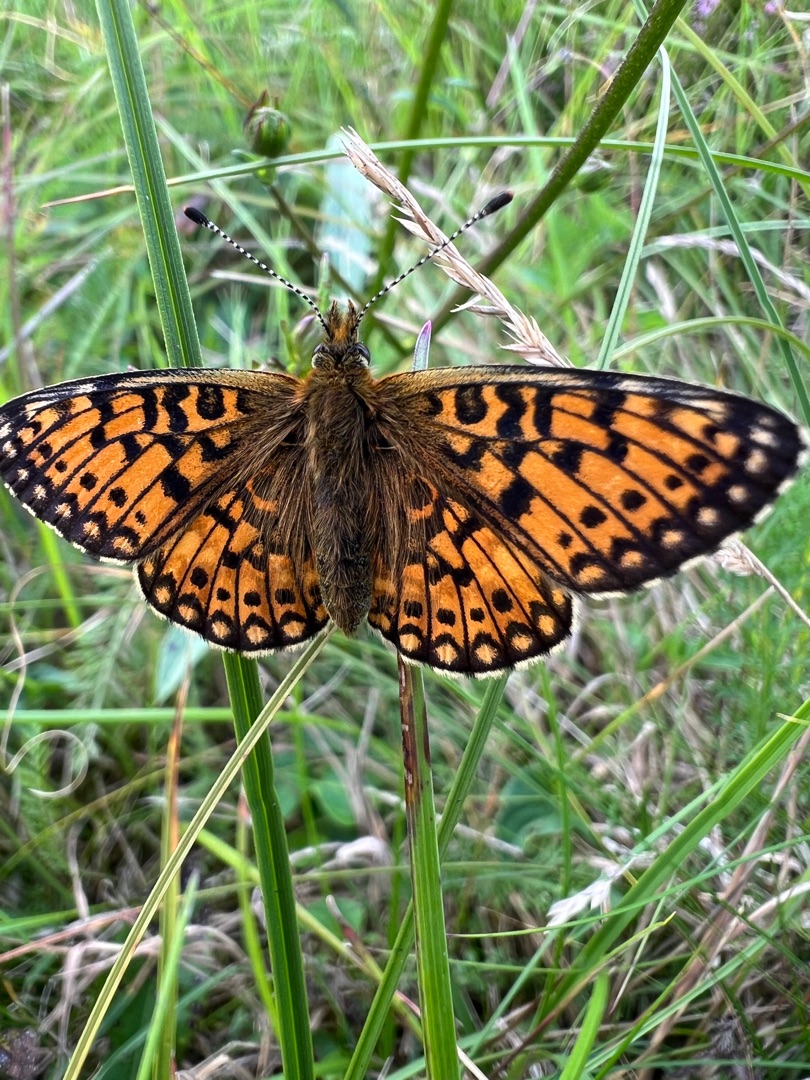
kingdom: Animalia
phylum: Arthropoda
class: Insecta
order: Lepidoptera
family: Nymphalidae
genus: Boloria
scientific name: Boloria selene
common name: Brunlig perlemorsommerfugl
